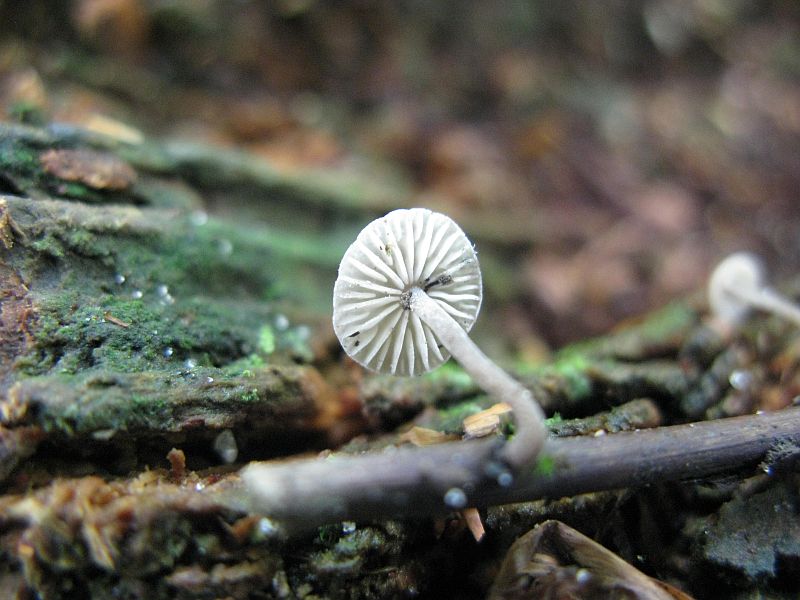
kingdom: Fungi
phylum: Basidiomycota
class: Agaricomycetes
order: Agaricales
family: Omphalotaceae
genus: Mycetinis
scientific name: Mycetinis alliaceus
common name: stor løghat
